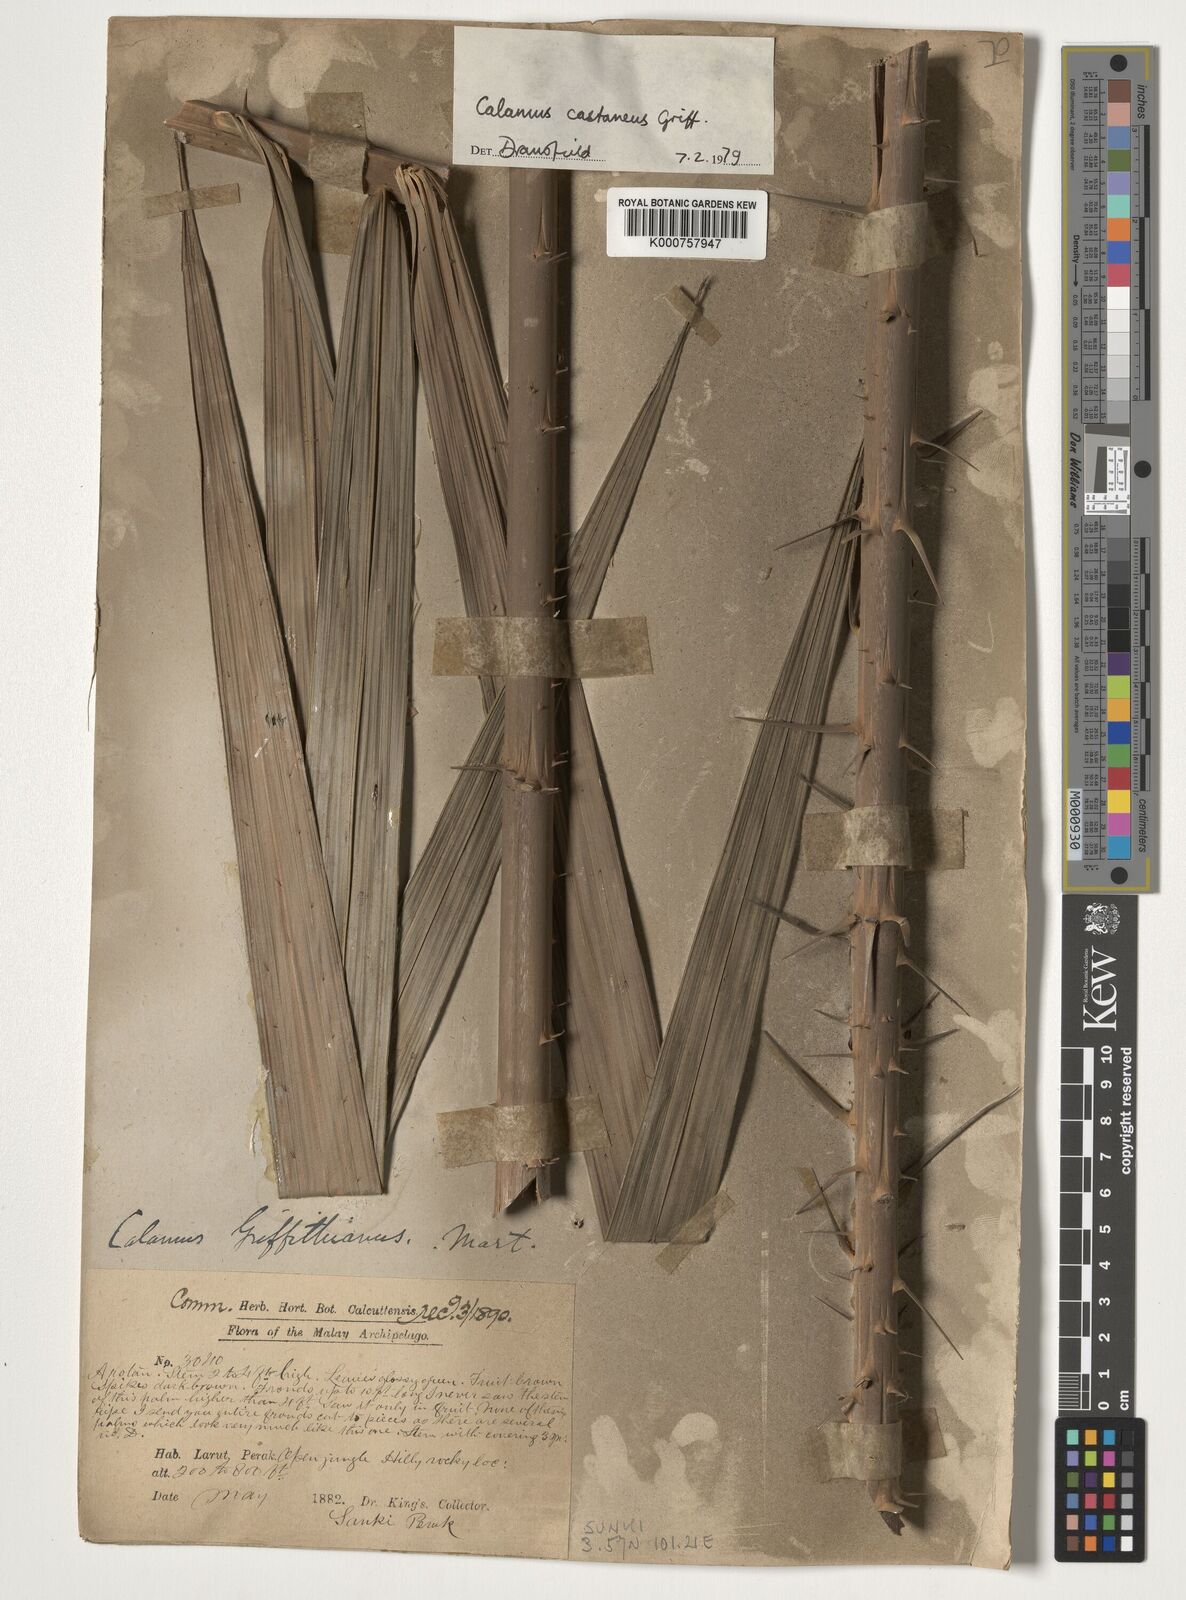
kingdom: Plantae
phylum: Tracheophyta
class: Liliopsida
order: Arecales
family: Arecaceae
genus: Calamus
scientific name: Calamus castaneus
